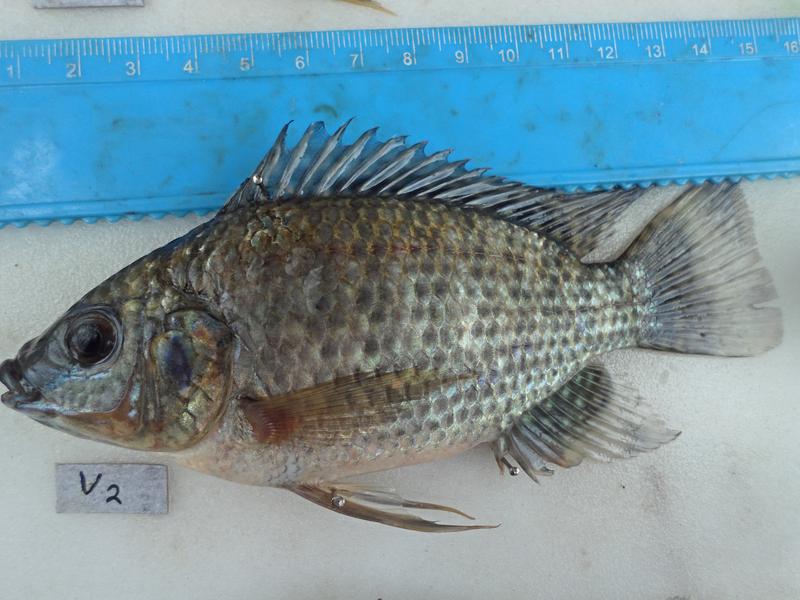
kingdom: Animalia
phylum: Chordata
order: Perciformes
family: Cichlidae
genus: Oreochromis
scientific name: Oreochromis leucostictus
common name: Blue spotted tilapia
